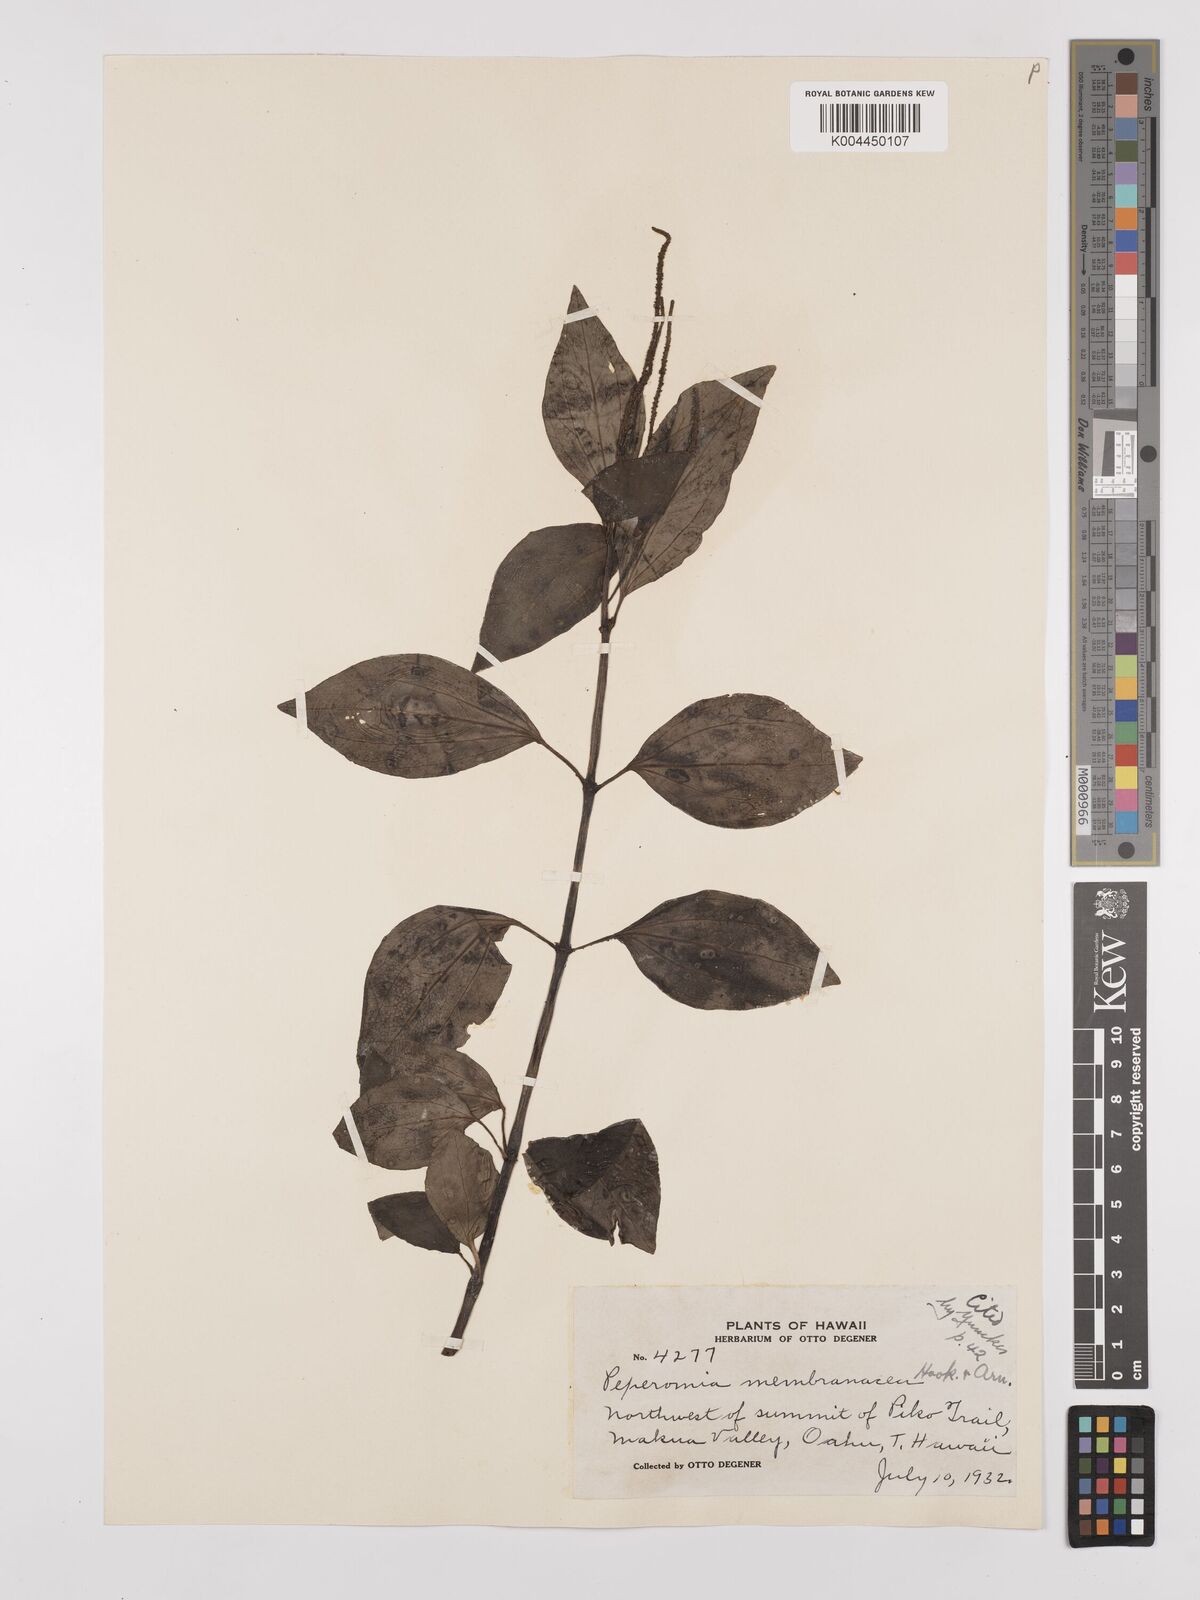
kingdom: Plantae
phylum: Tracheophyta
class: Magnoliopsida
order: Piperales
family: Piperaceae
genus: Peperomia
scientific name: Peperomia membranacea
